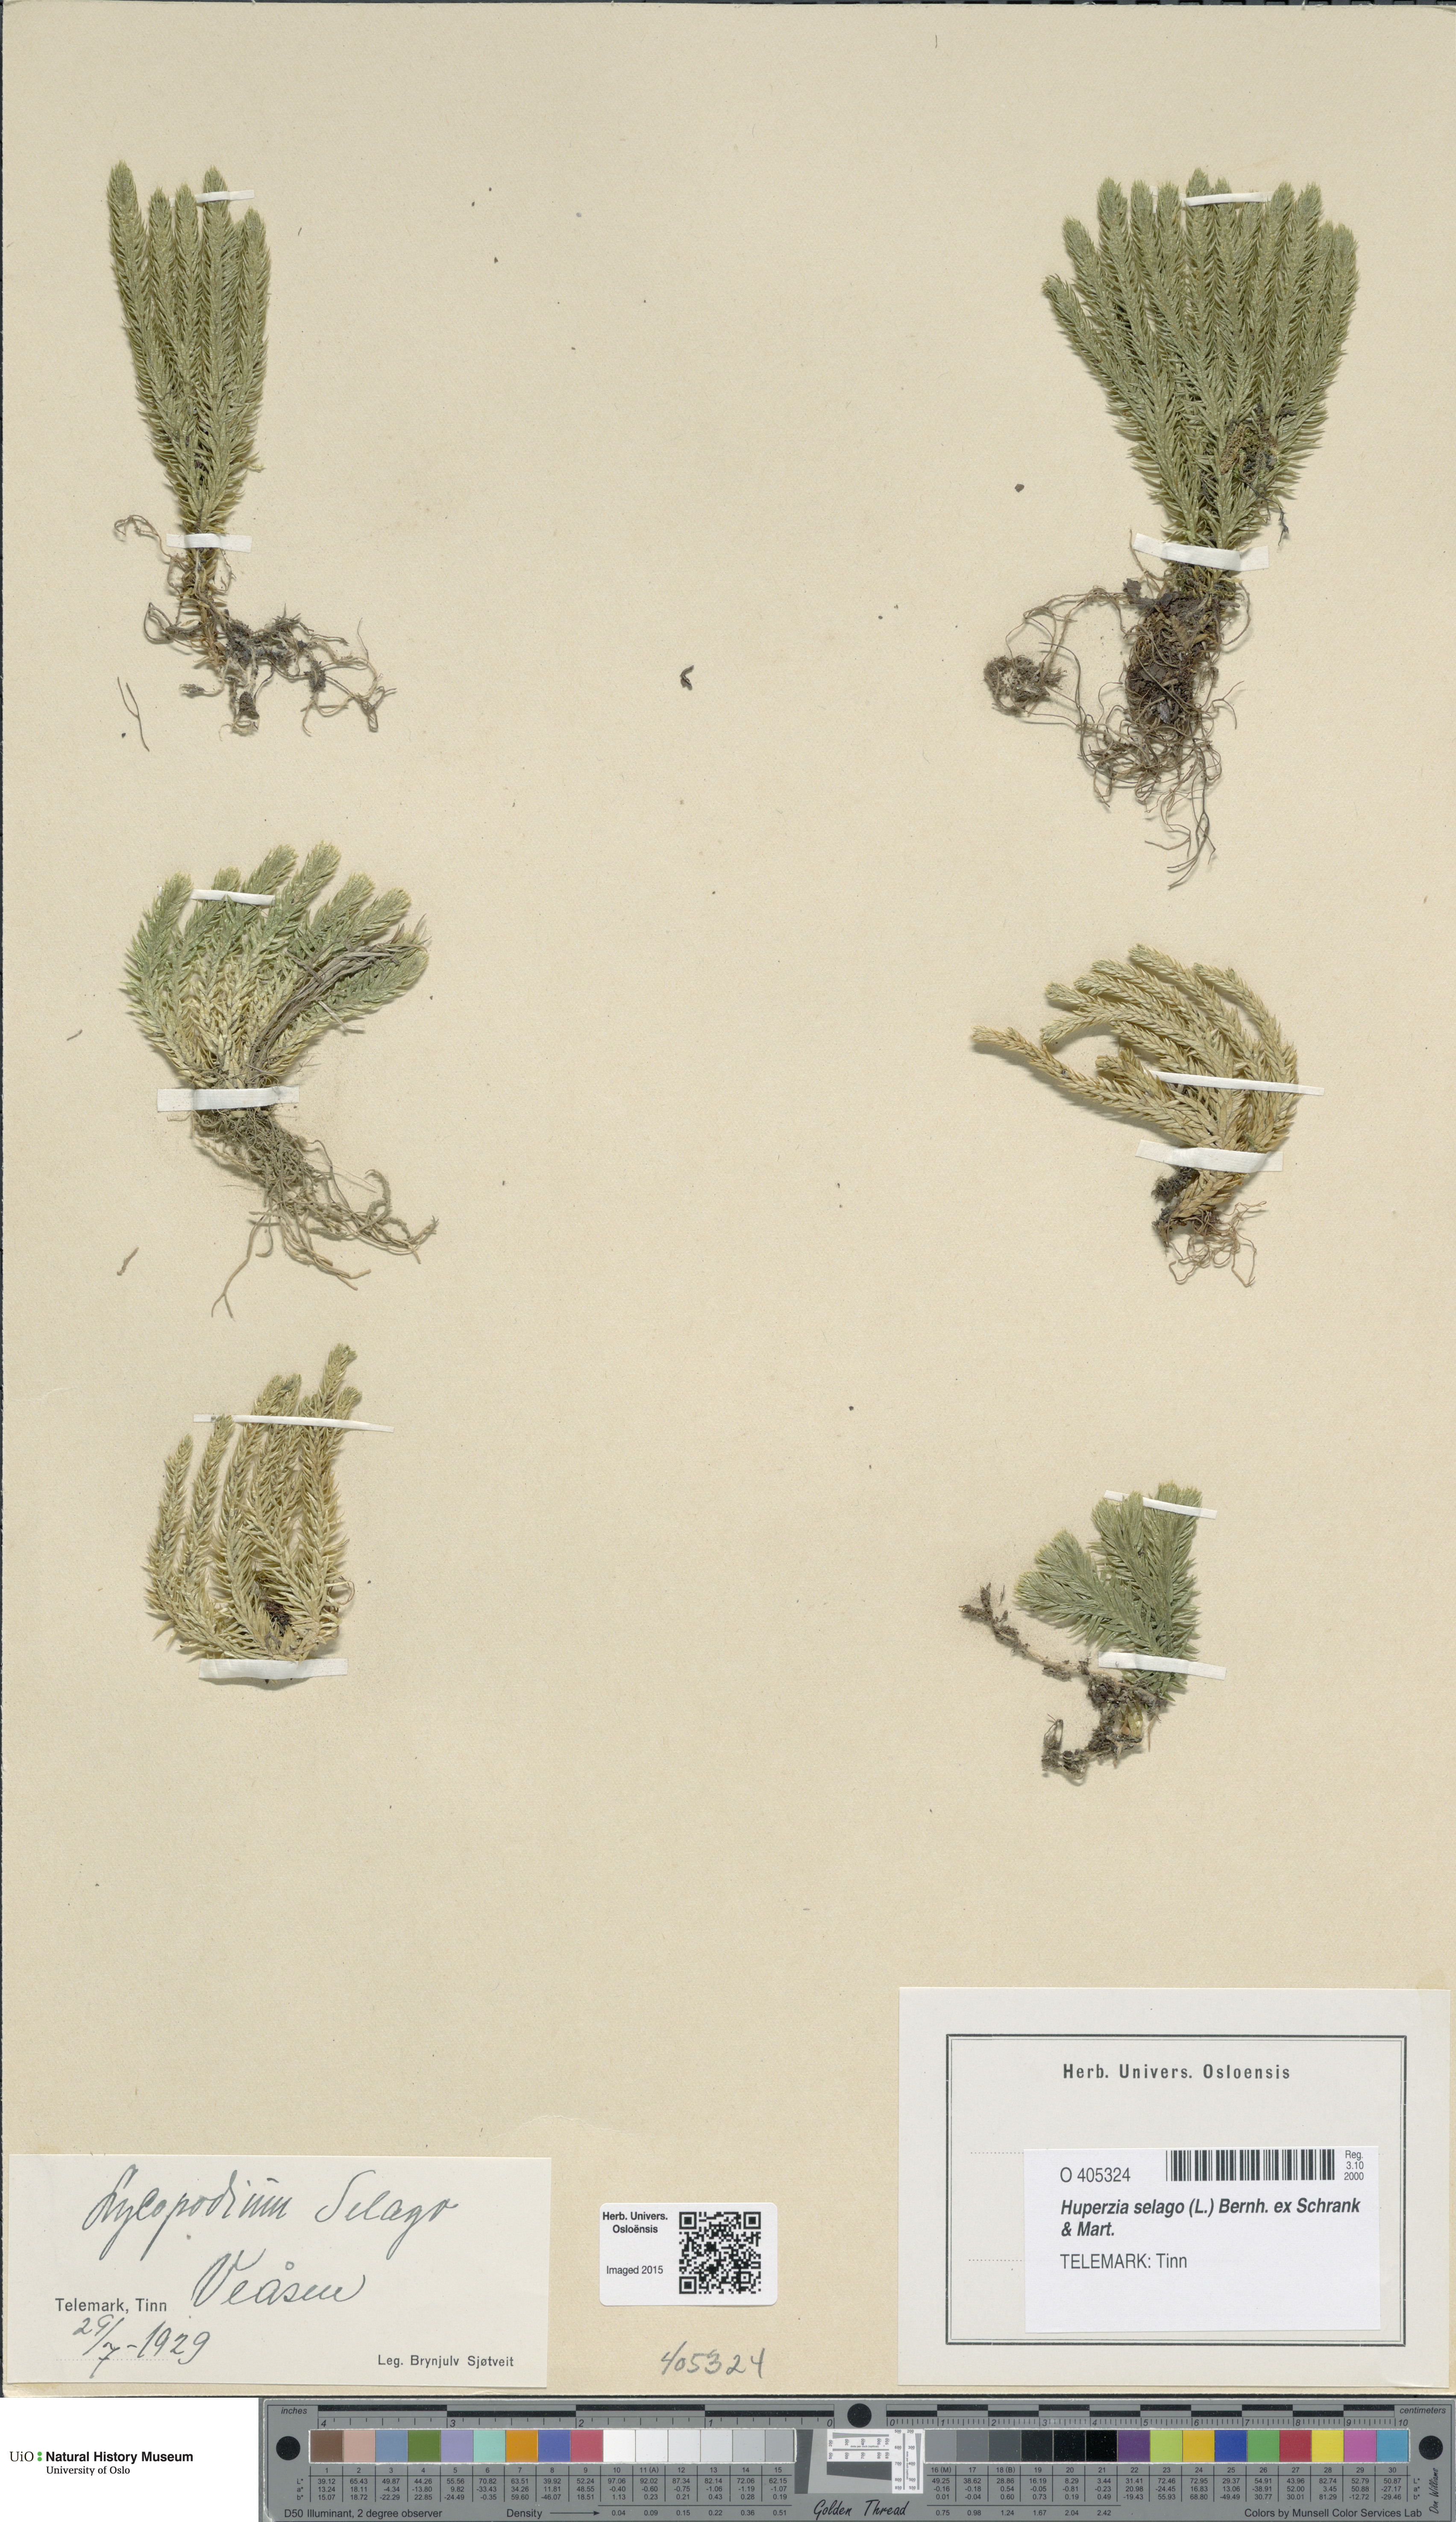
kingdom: Plantae
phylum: Tracheophyta
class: Lycopodiopsida
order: Lycopodiales
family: Lycopodiaceae
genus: Huperzia
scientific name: Huperzia selago
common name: Northern firmoss
